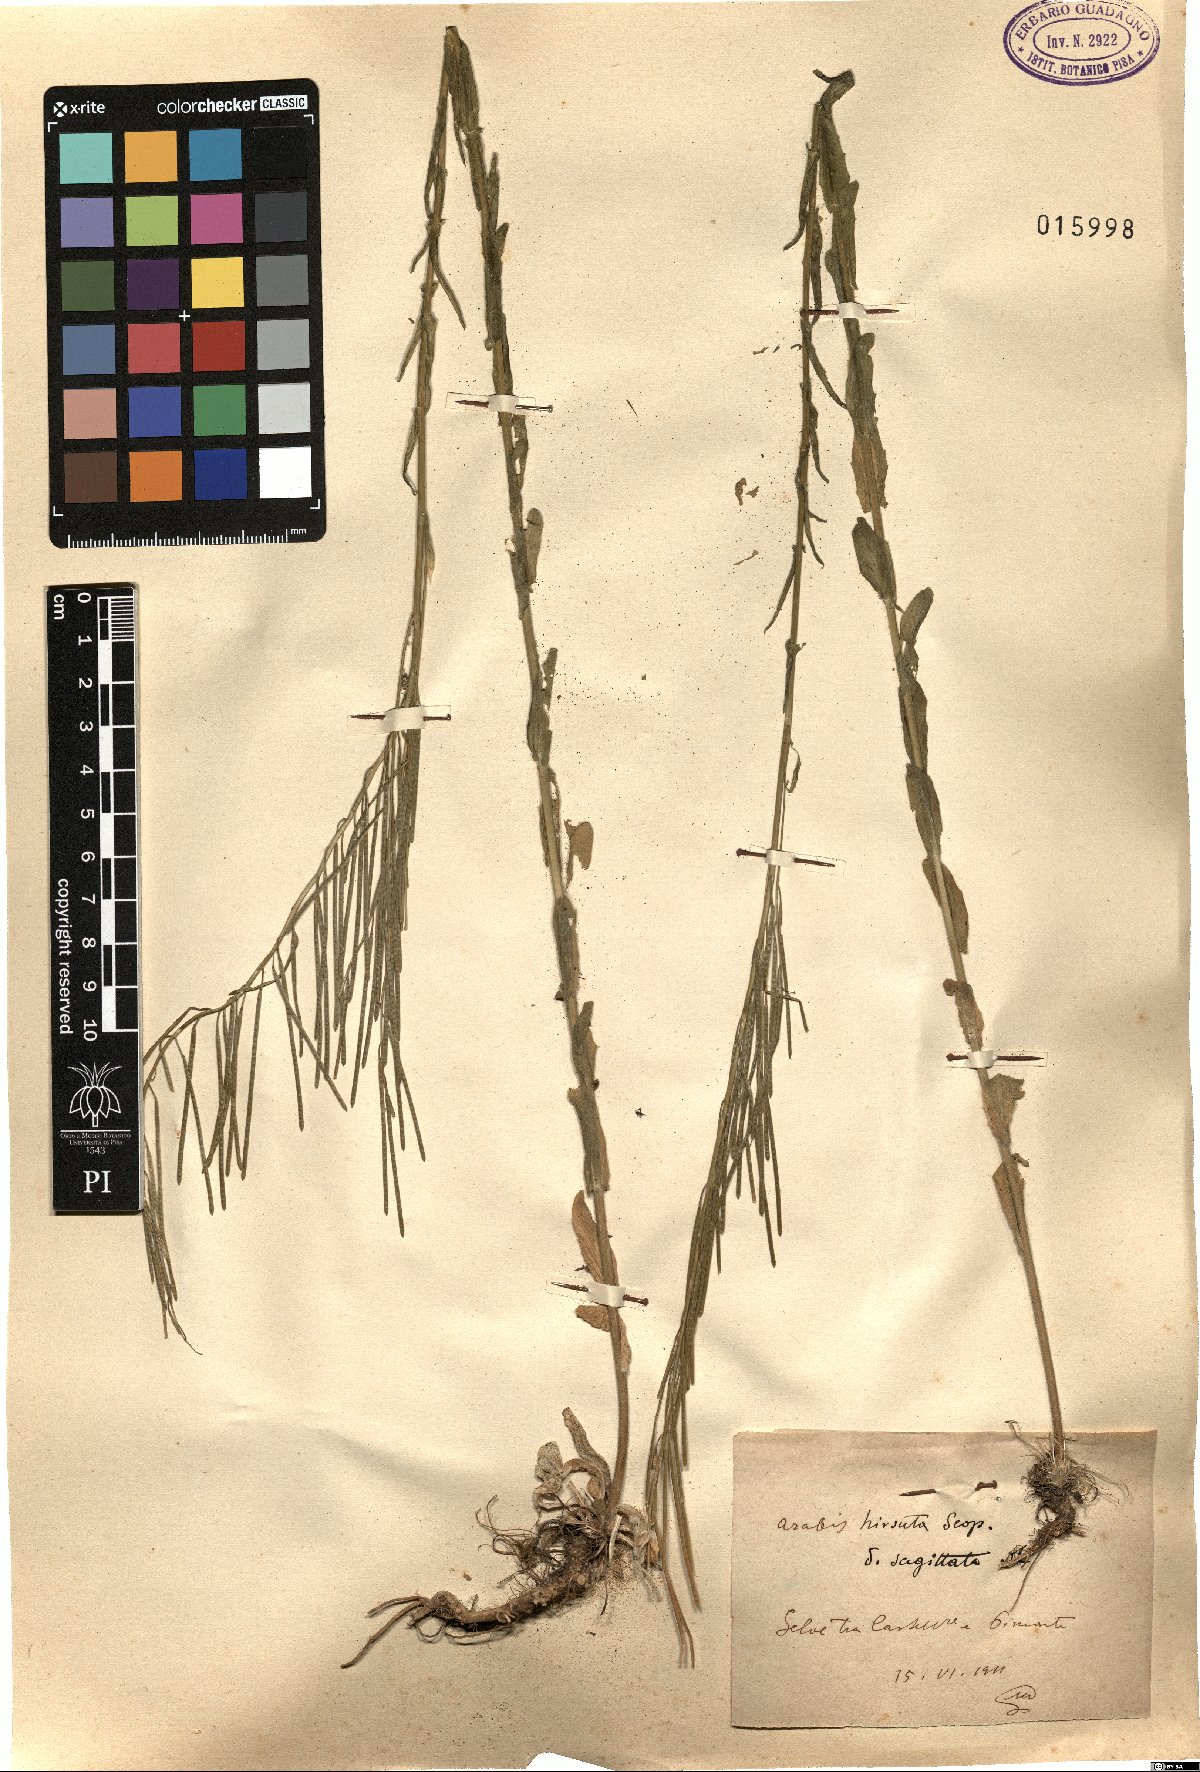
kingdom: Plantae
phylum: Tracheophyta
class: Magnoliopsida
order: Brassicales
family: Brassicaceae
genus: Arabis
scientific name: Arabis sagittata
